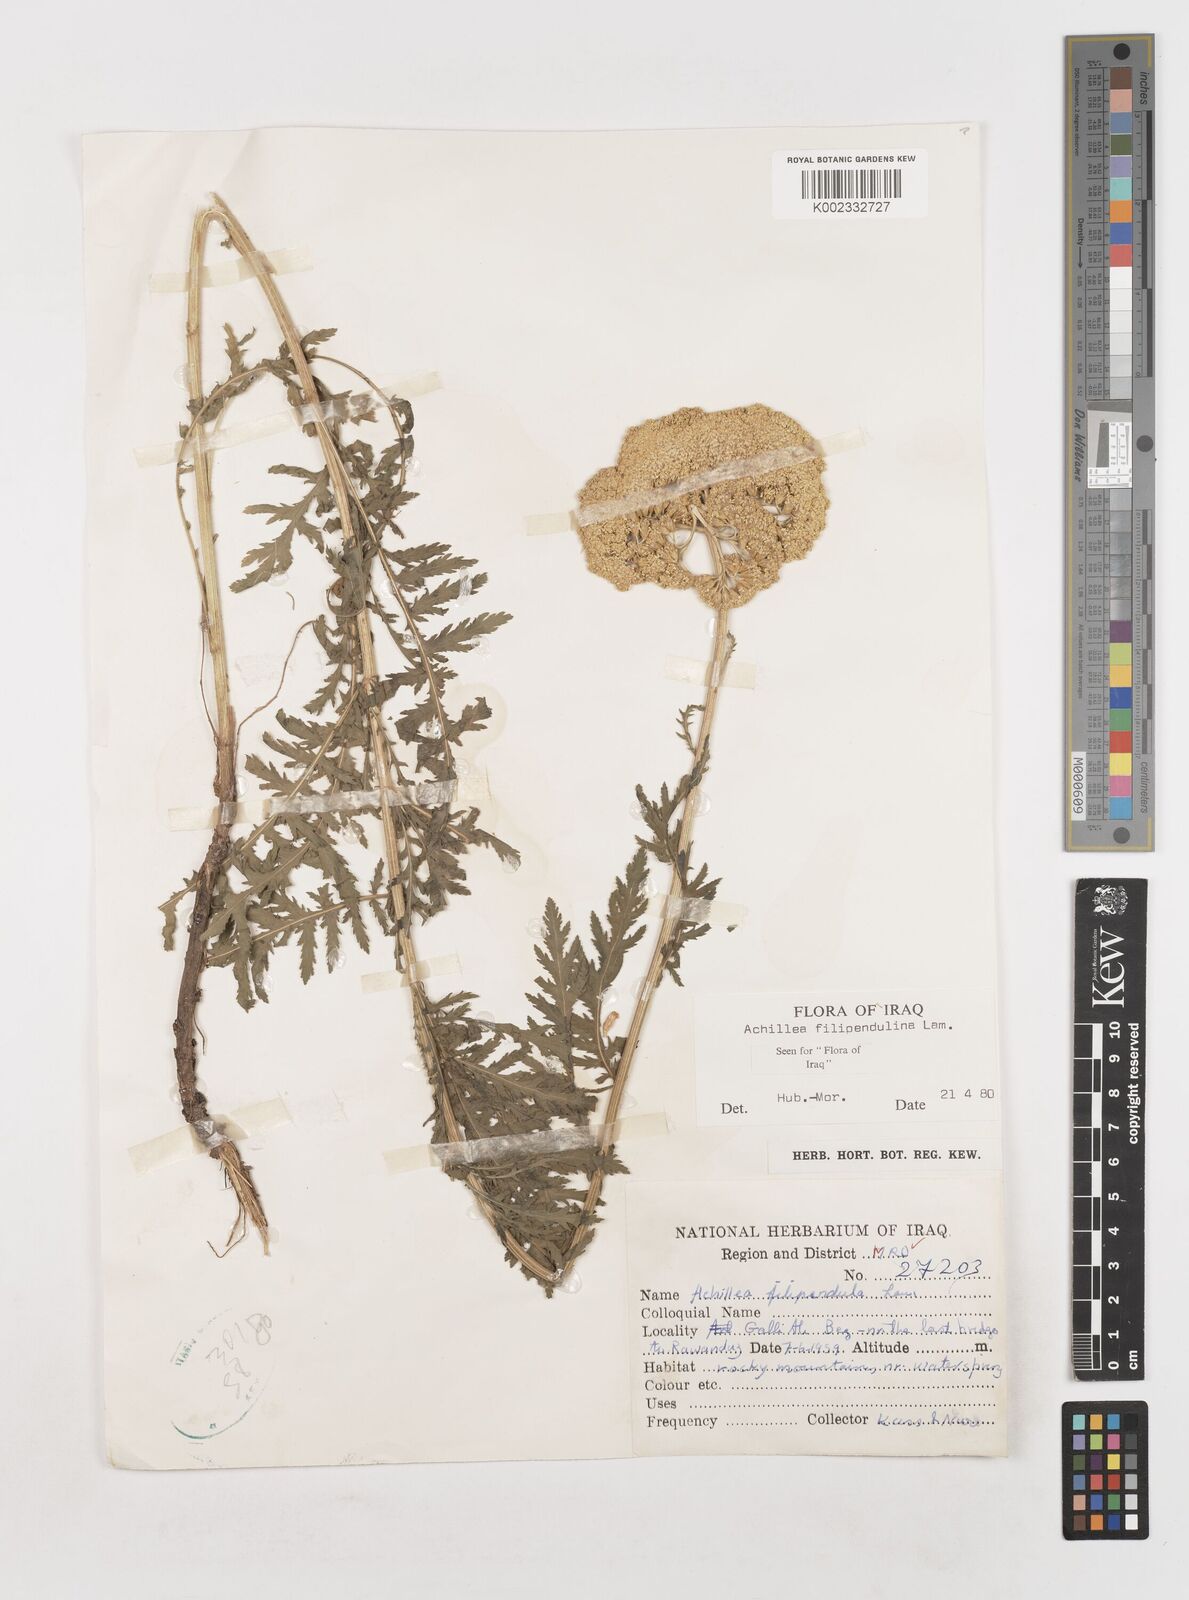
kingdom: Plantae
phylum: Tracheophyta
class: Magnoliopsida
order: Asterales
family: Asteraceae
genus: Achillea
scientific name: Achillea filipendulina
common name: Fernleaf yarrow
